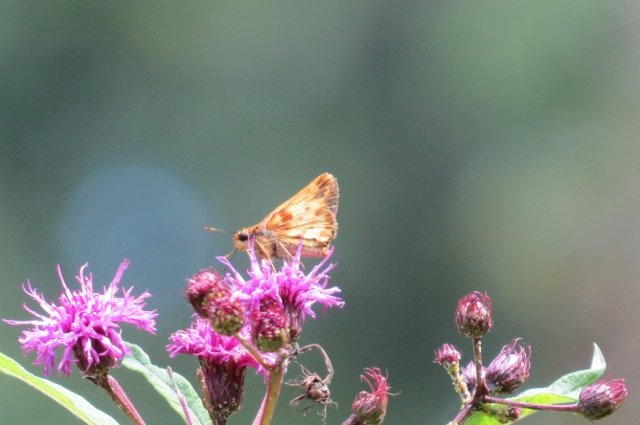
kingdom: Animalia
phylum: Arthropoda
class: Insecta
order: Lepidoptera
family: Hesperiidae
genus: Lon
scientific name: Lon zabulon
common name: Zabulon Skipper
